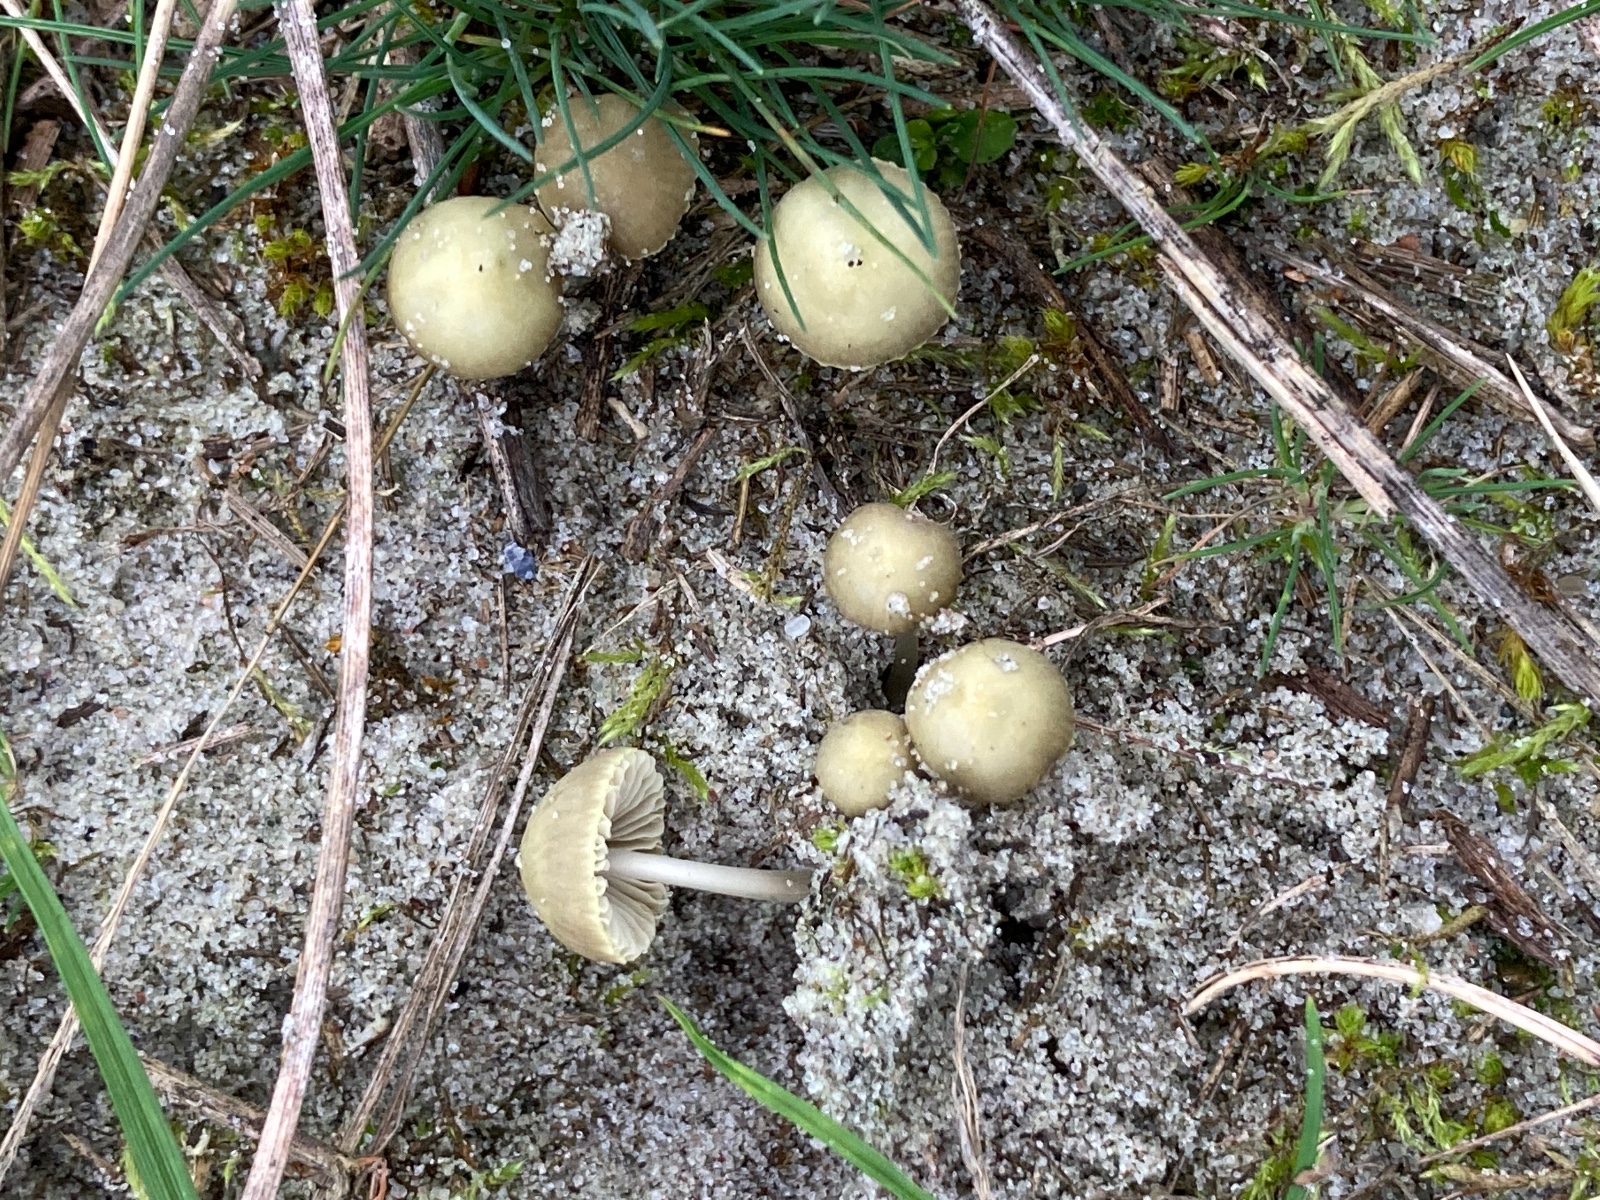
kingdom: Fungi
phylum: Basidiomycota
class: Agaricomycetes
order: Agaricales
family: Mycenaceae
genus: Mycena
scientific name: Mycena chlorantha
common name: klit-huesvamp
